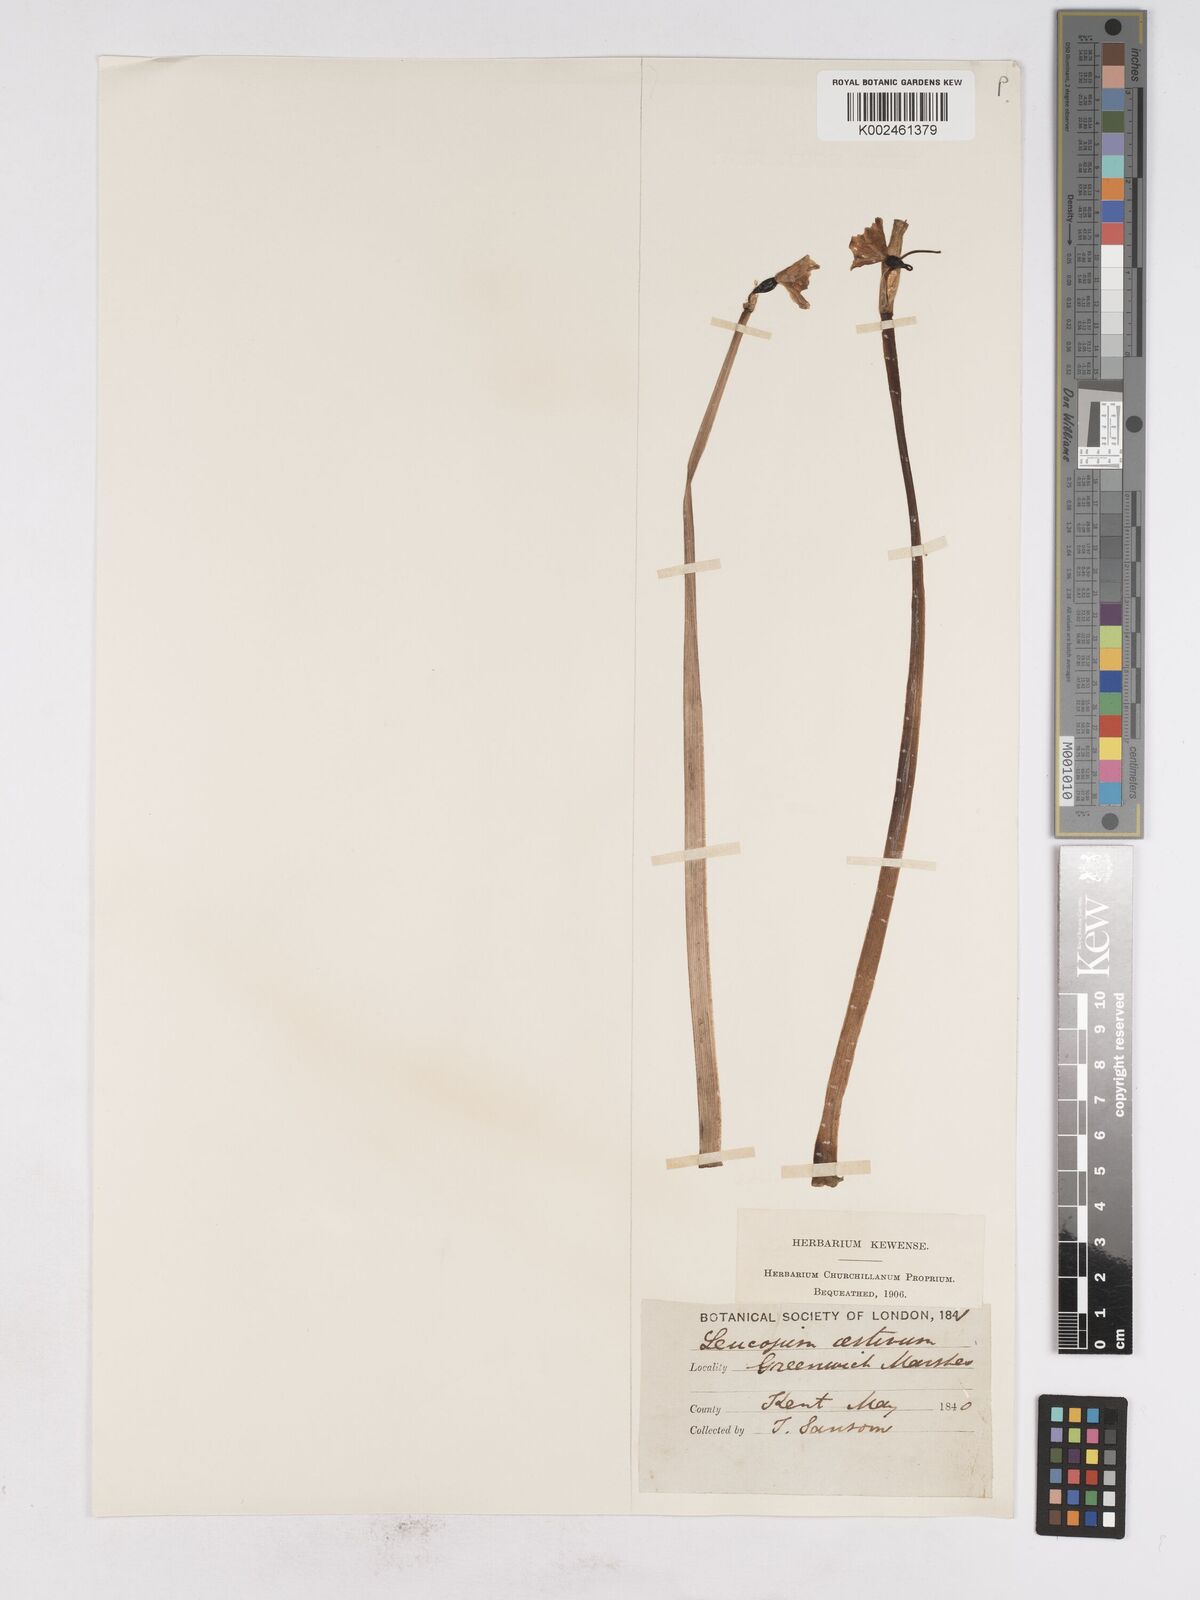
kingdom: Plantae
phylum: Tracheophyta
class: Liliopsida
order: Asparagales
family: Amaryllidaceae
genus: Leucojum
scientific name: Leucojum aestivum
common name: Summer snowflake
